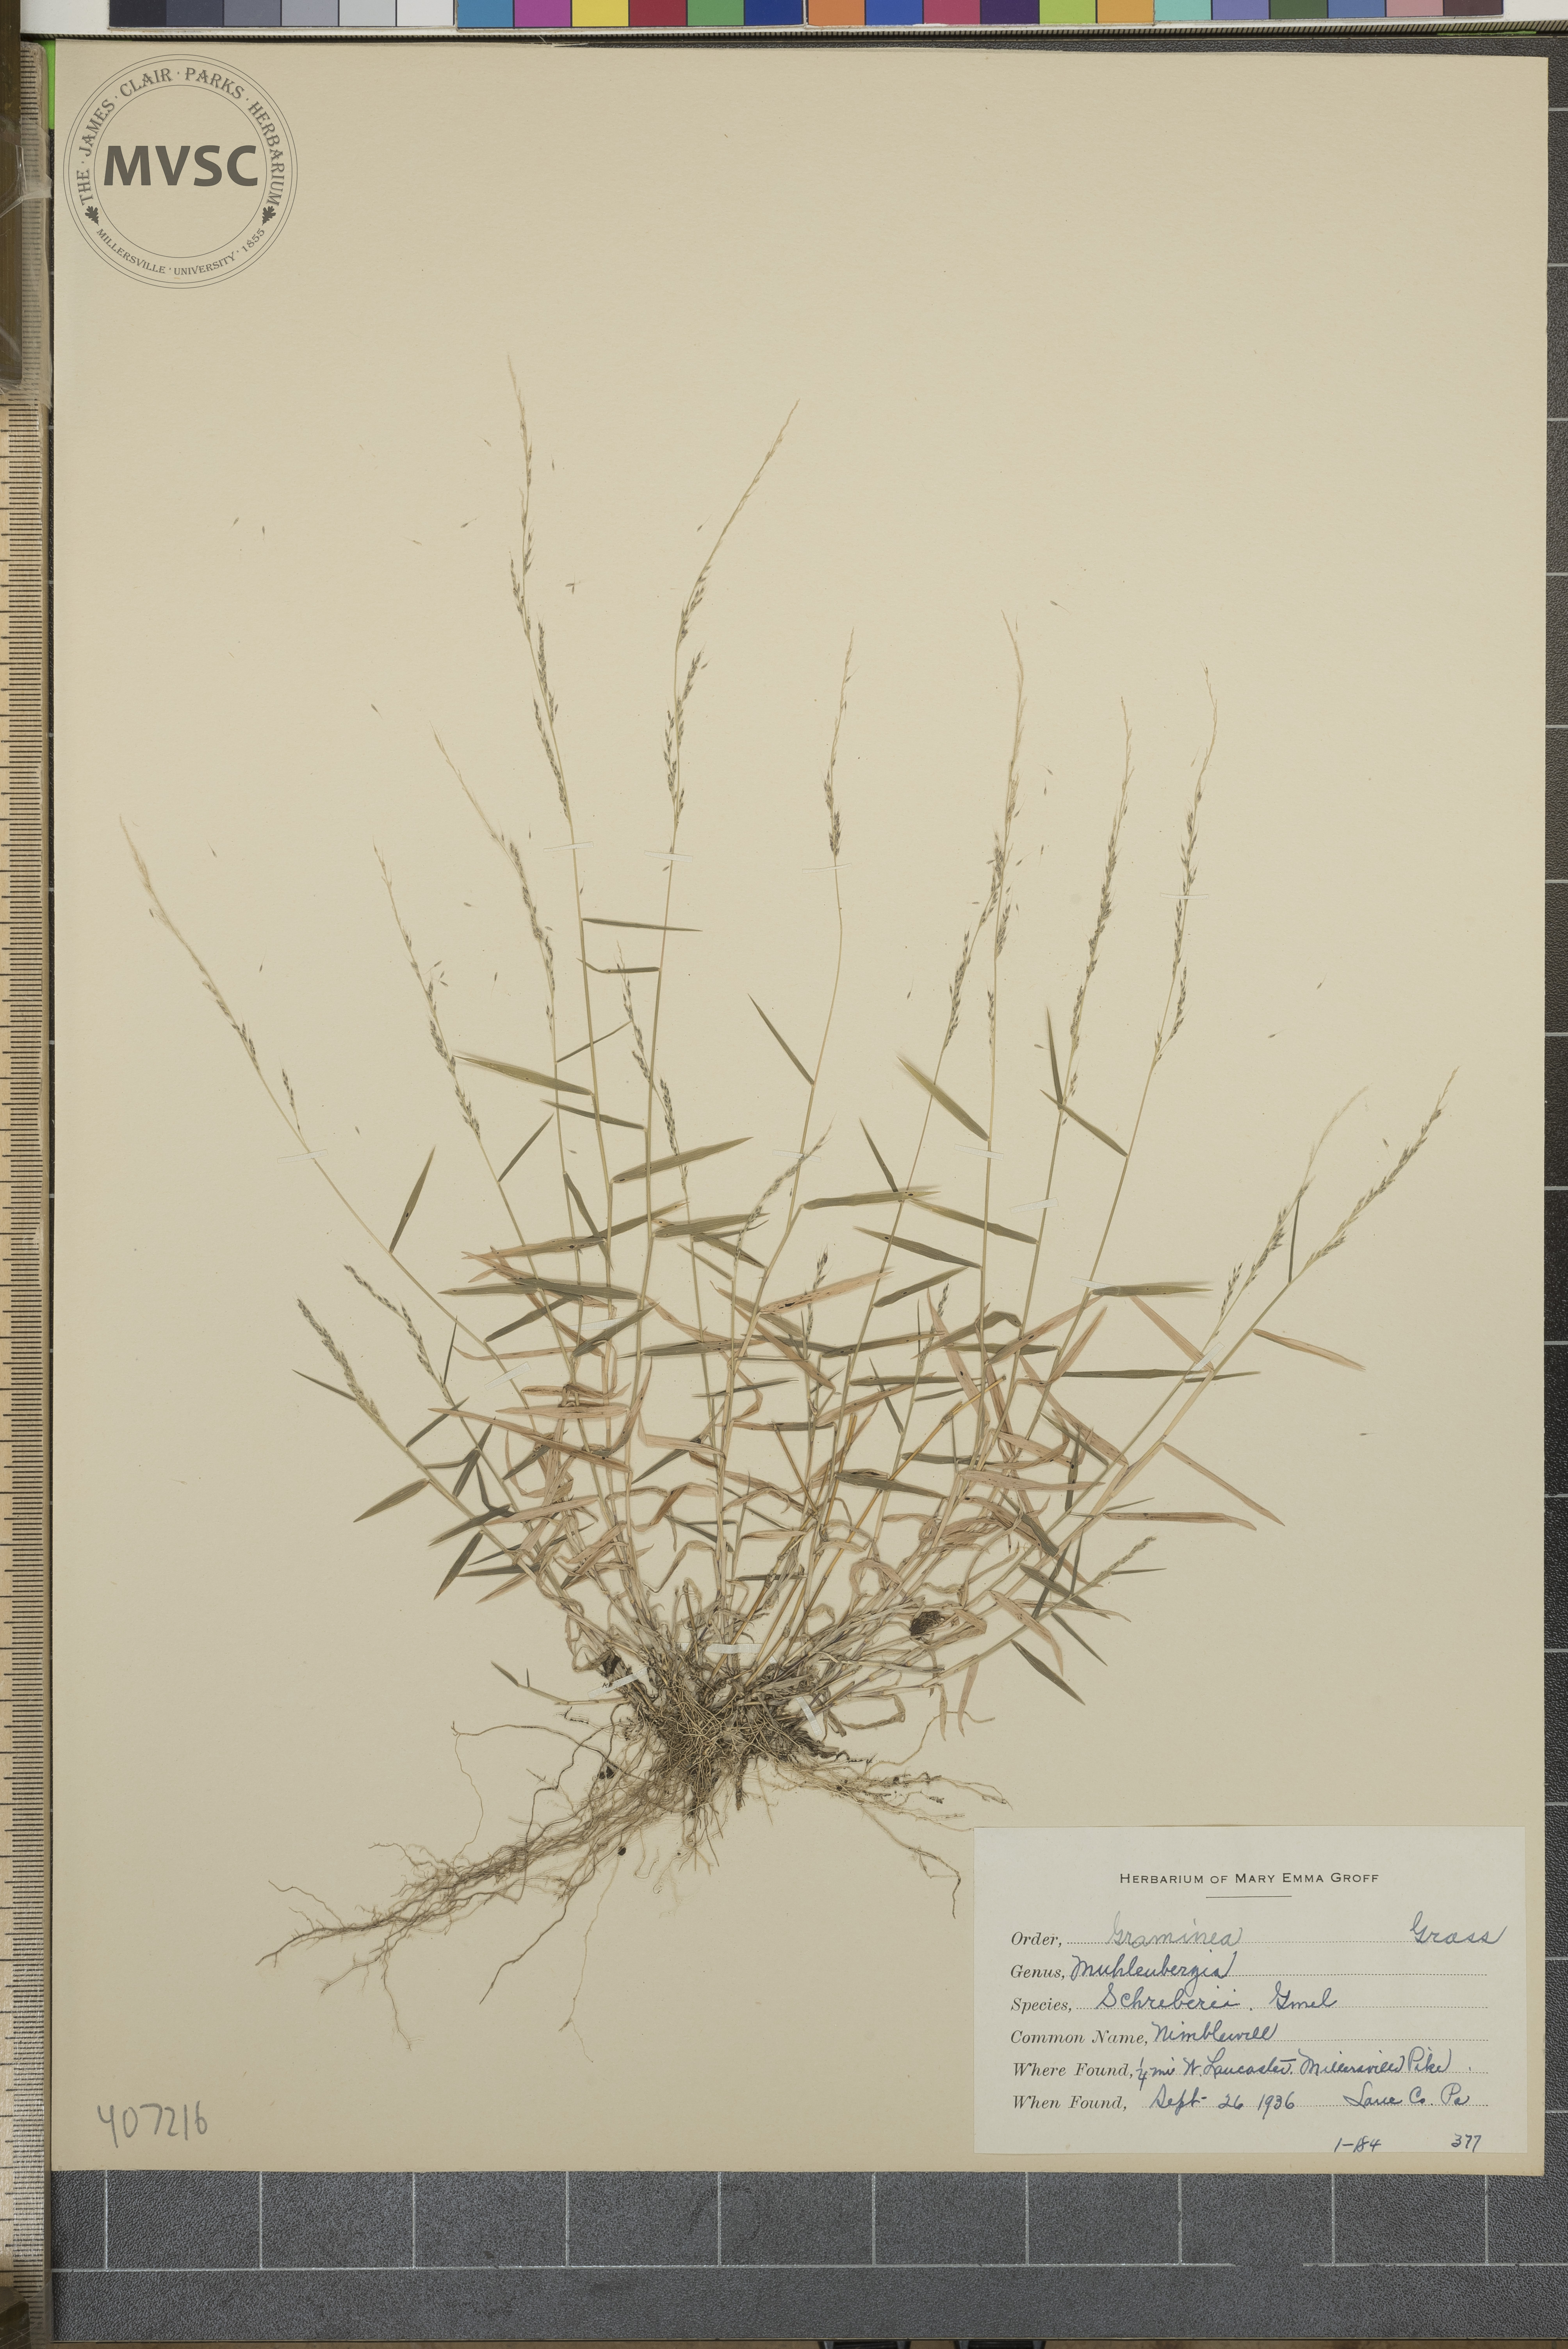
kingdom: Plantae
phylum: Tracheophyta
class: Liliopsida
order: Poales
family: Poaceae
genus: Muhlenbergia
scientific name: Muhlenbergia schreberi
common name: nimblewill
